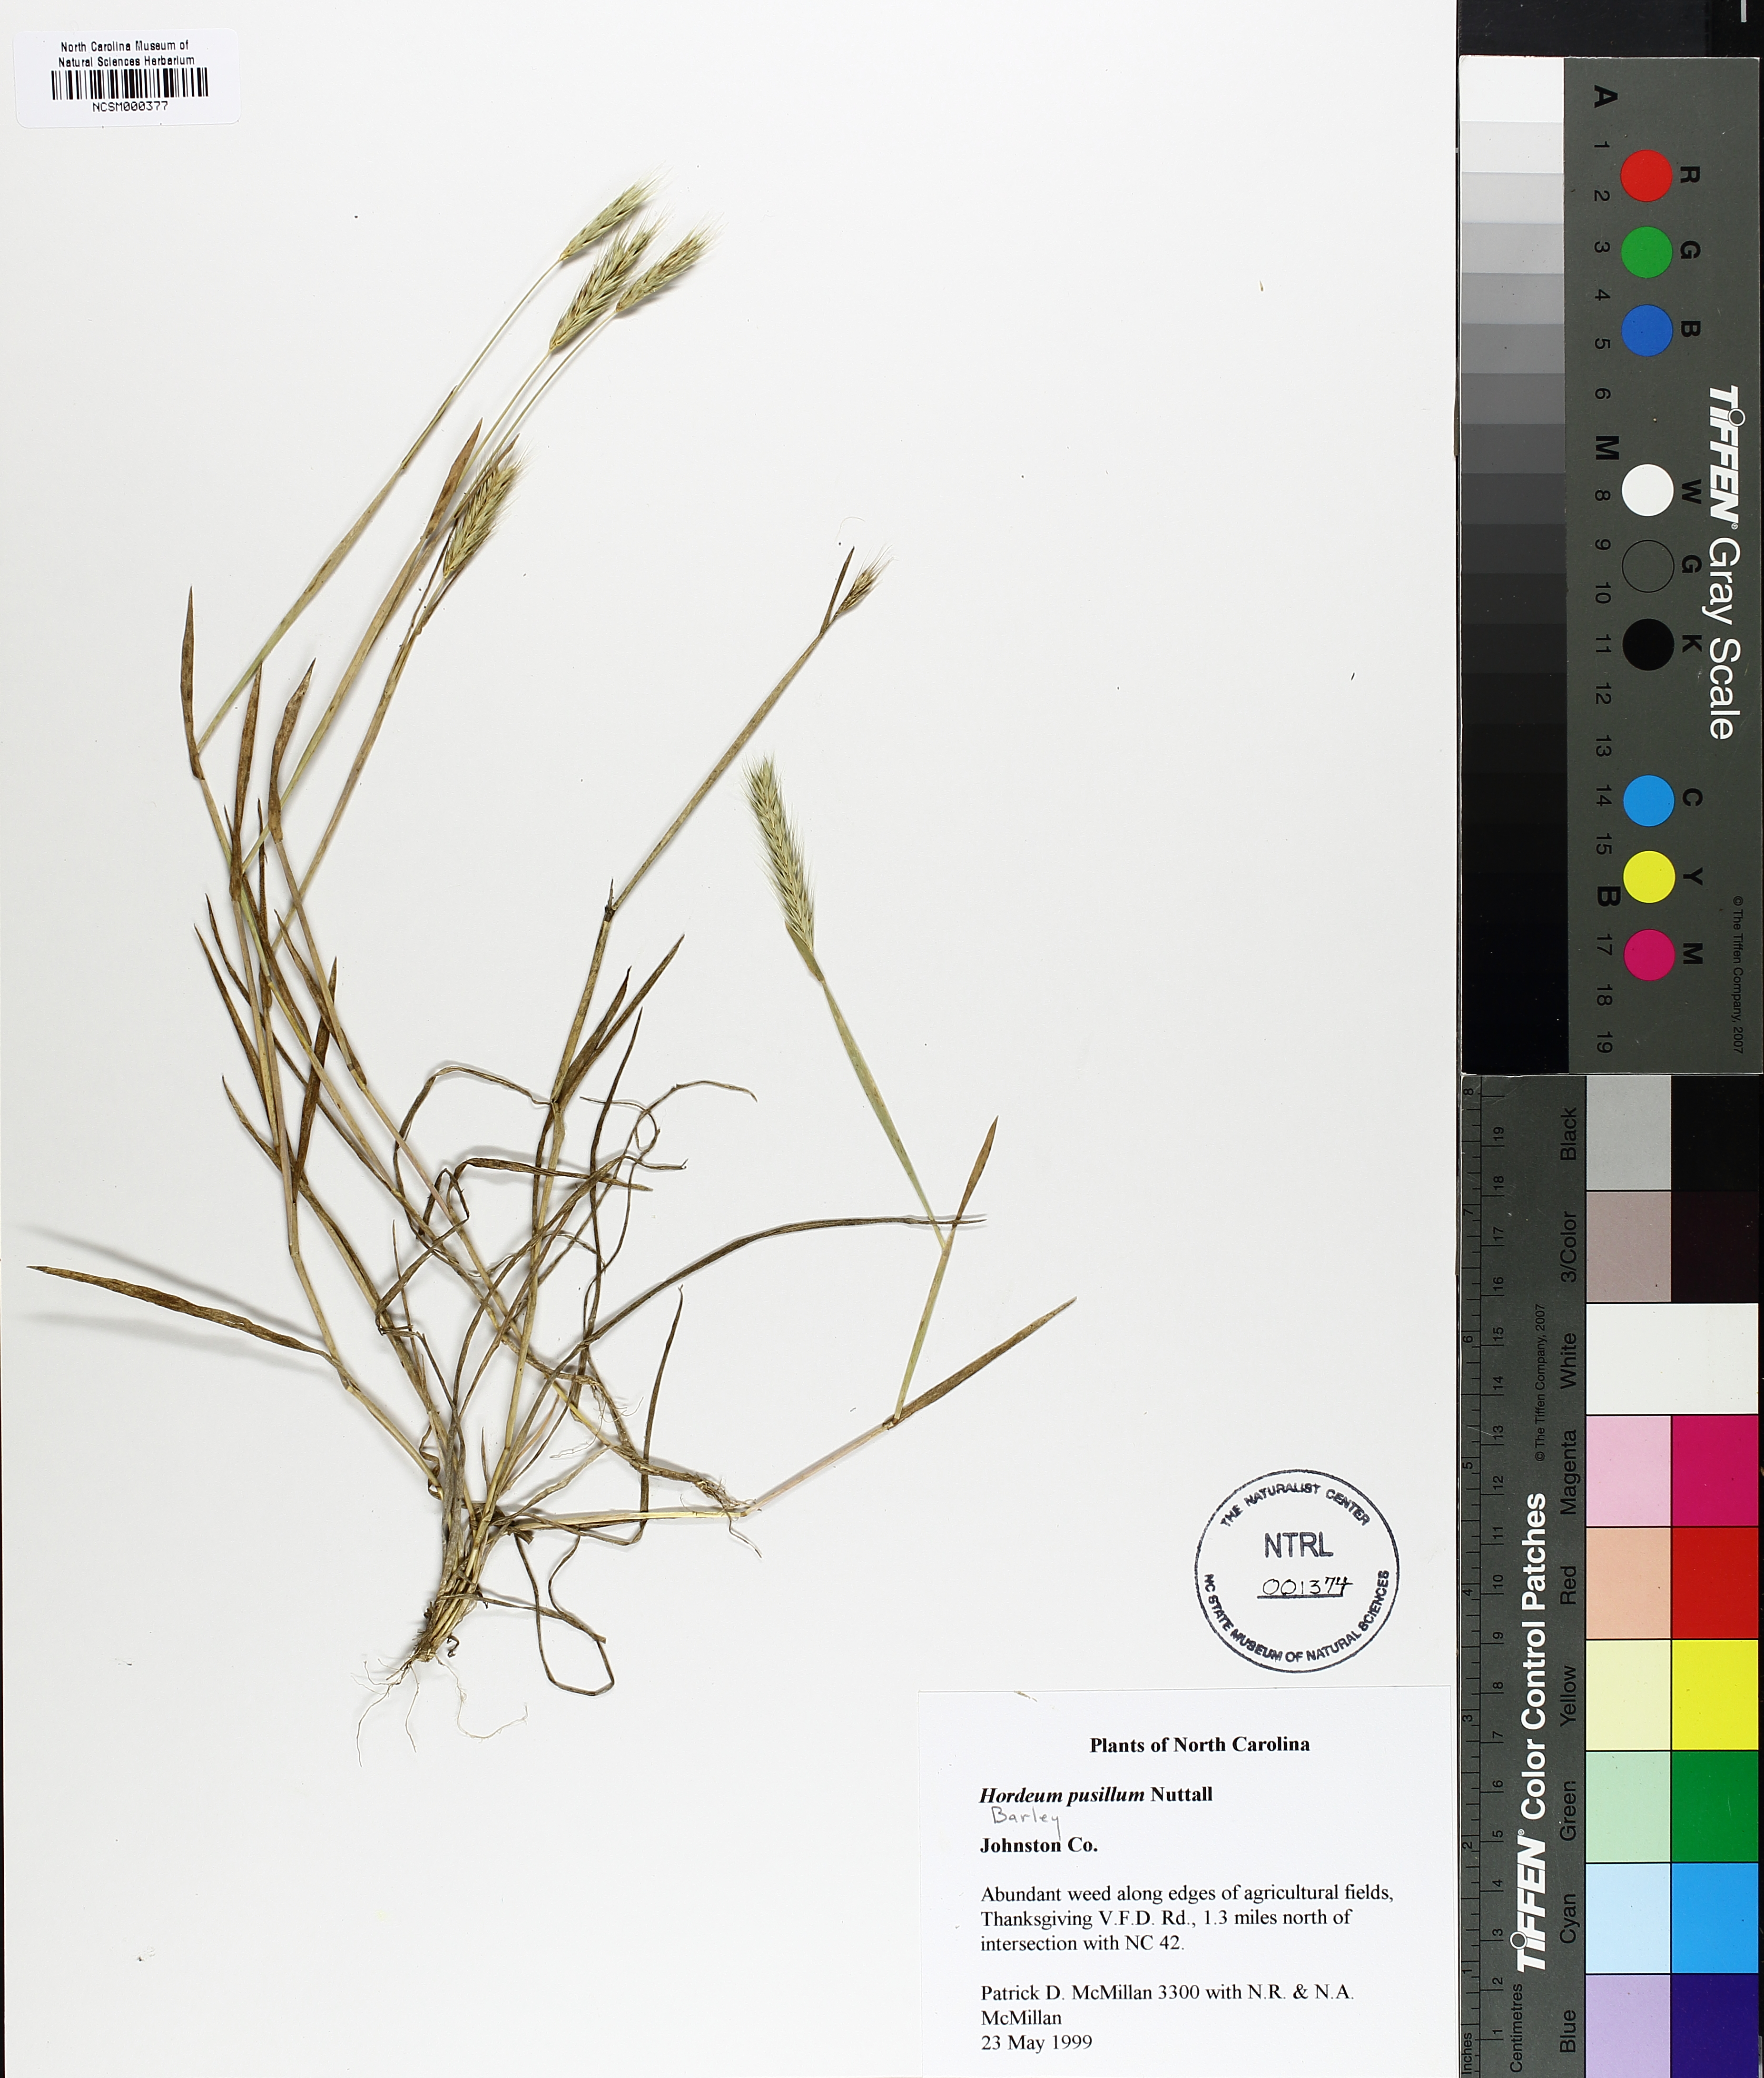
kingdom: Plantae
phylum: Tracheophyta
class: Liliopsida
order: Poales
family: Poaceae
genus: Hordeum
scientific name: Hordeum pusillum
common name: Little barley
